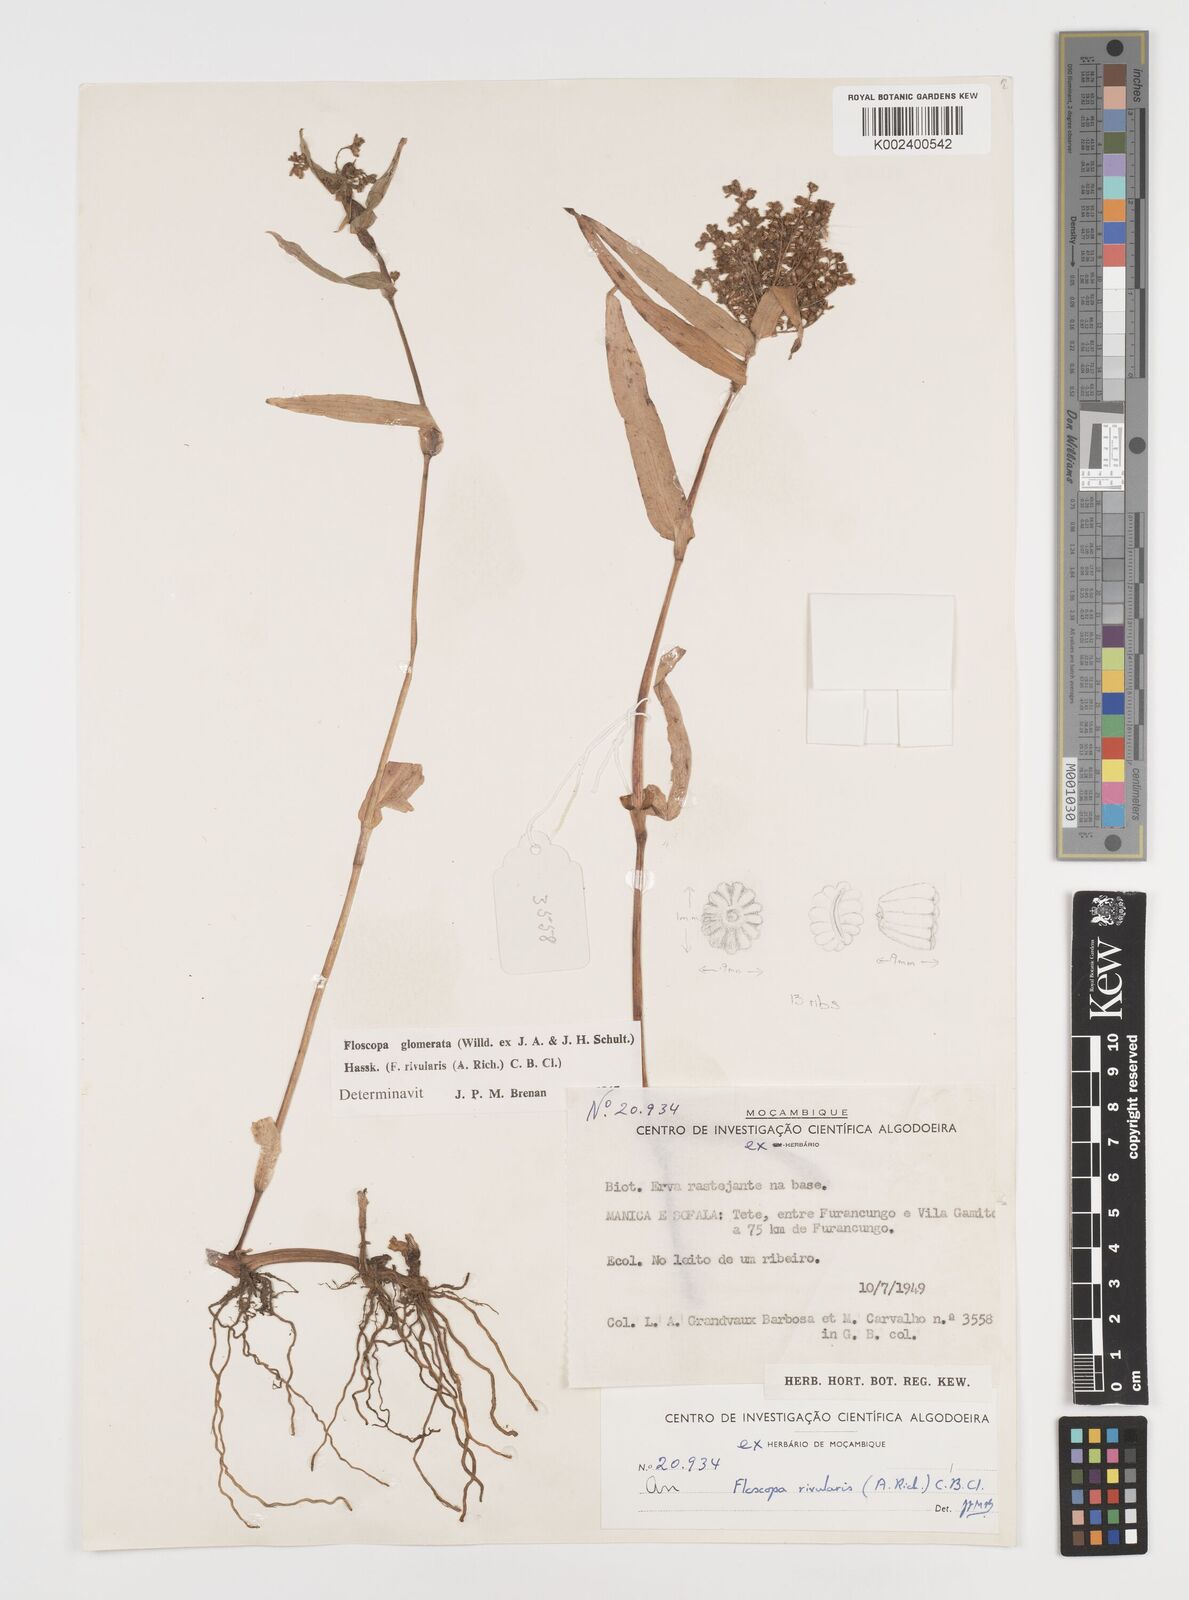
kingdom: Plantae
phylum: Tracheophyta
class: Liliopsida
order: Commelinales
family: Commelinaceae
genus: Floscopa
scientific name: Floscopa glomerata
